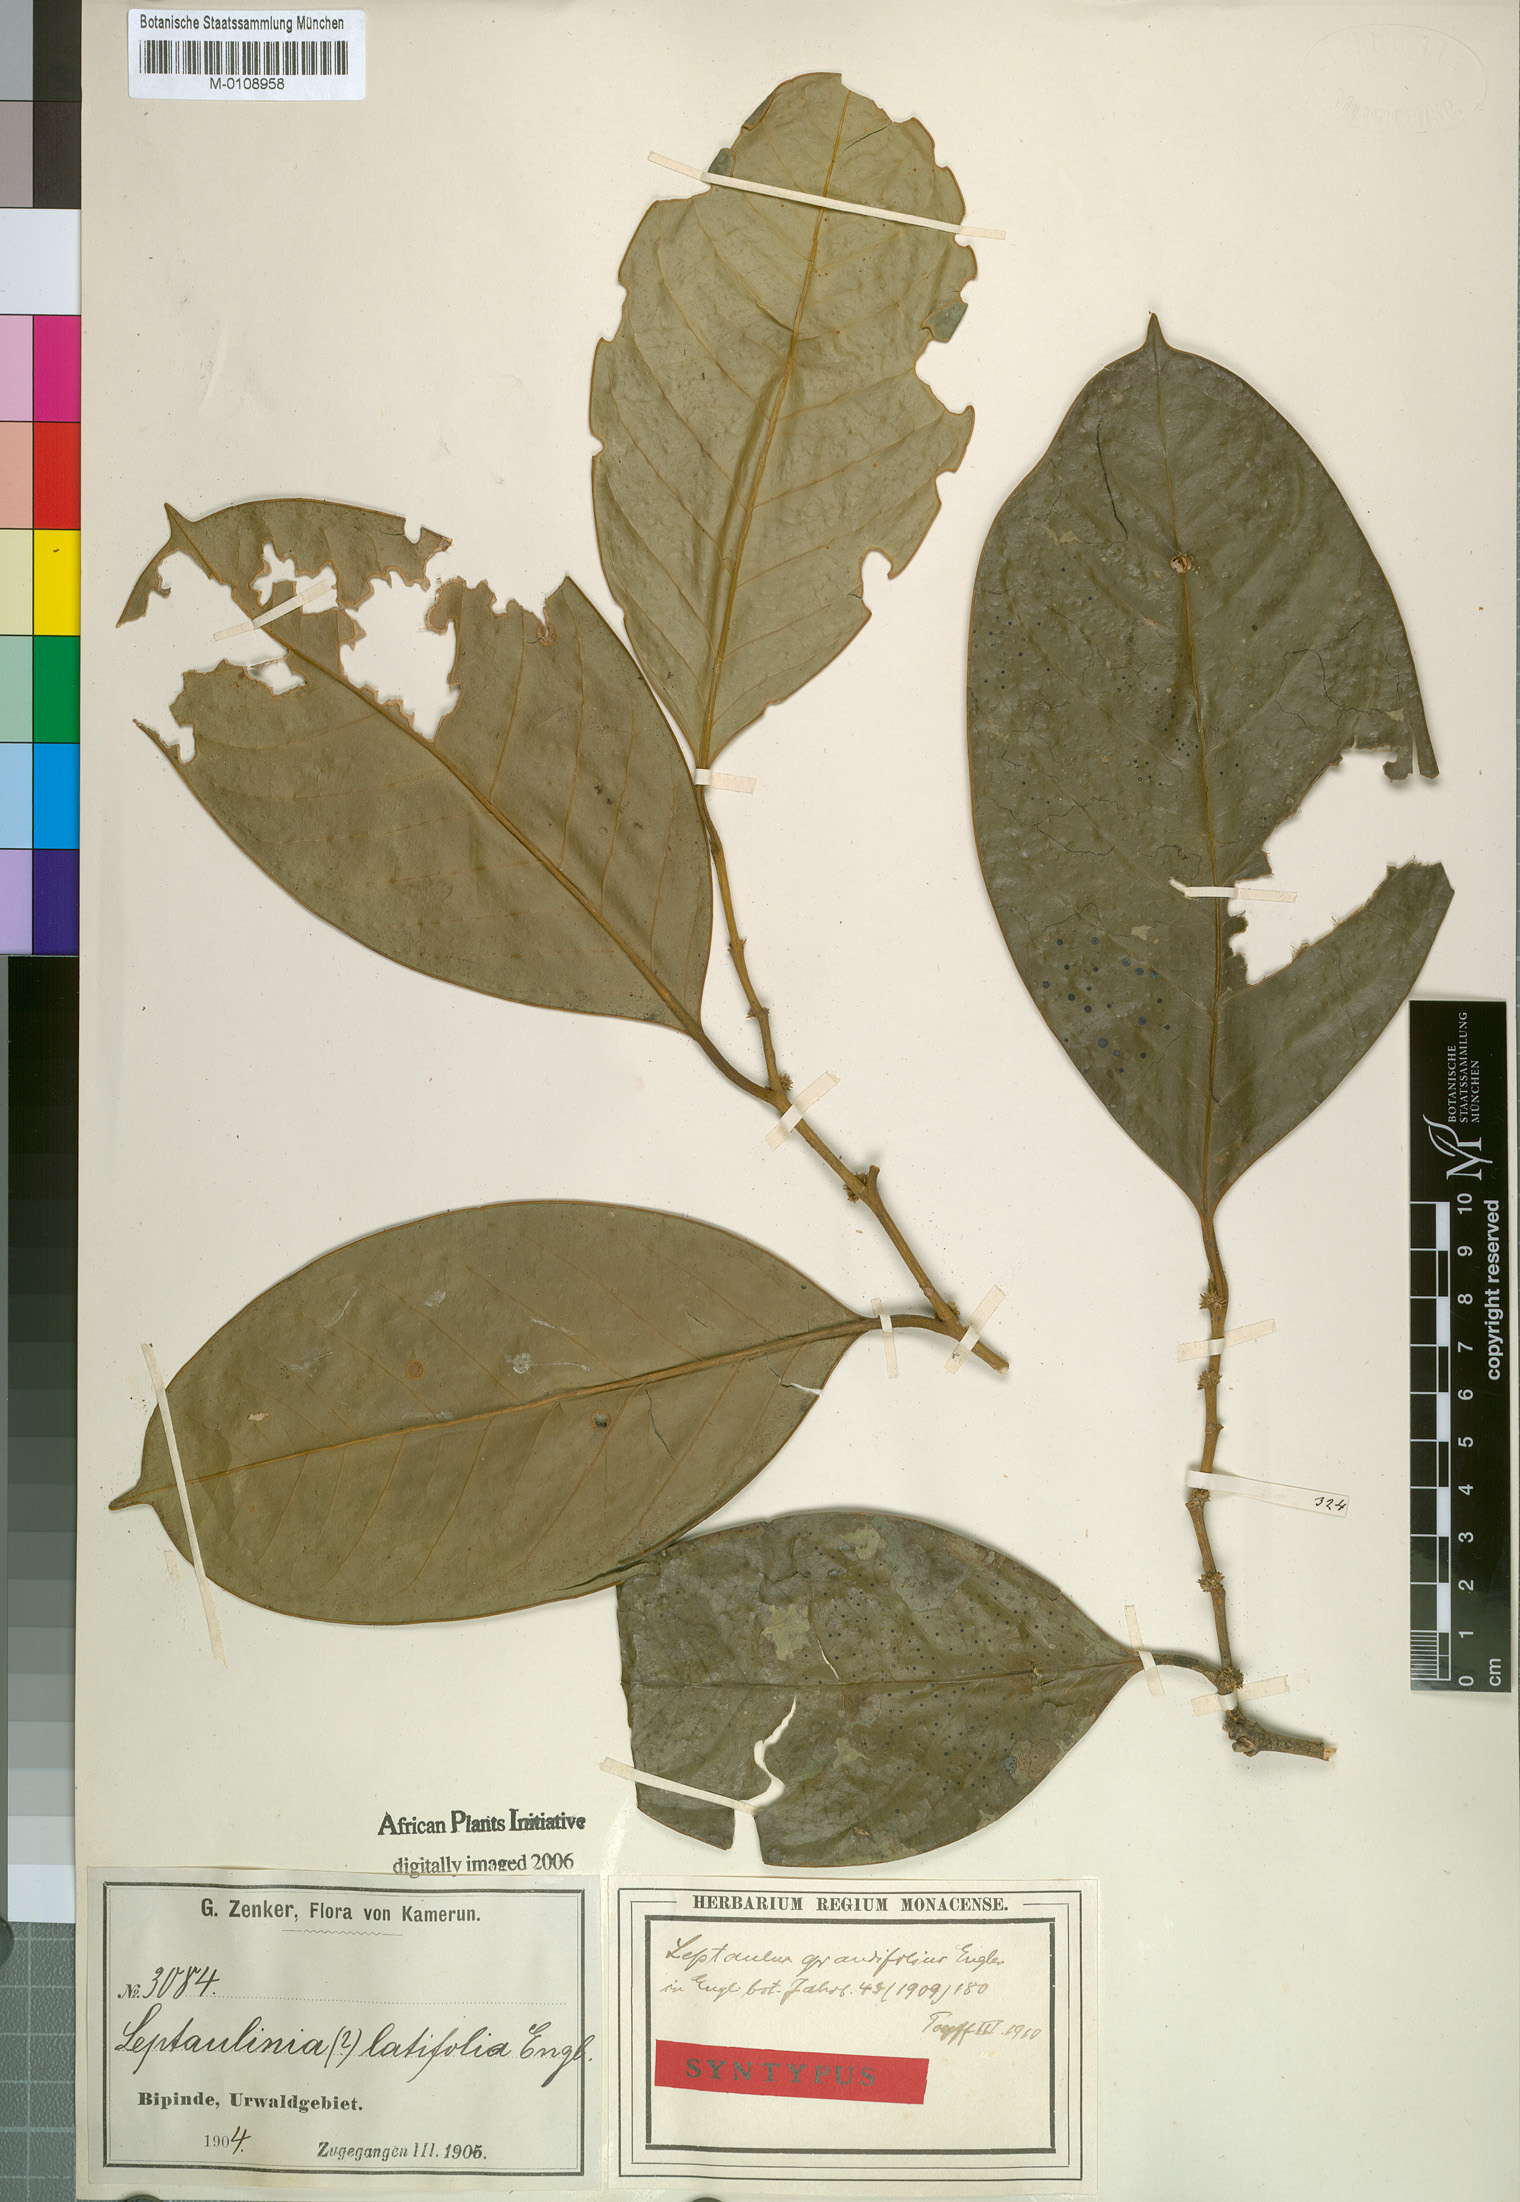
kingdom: Plantae
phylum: Tracheophyta
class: Magnoliopsida
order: Cardiopteridales
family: Cardiopteridaceae
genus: Leptaulus
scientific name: Leptaulus grandifolius
